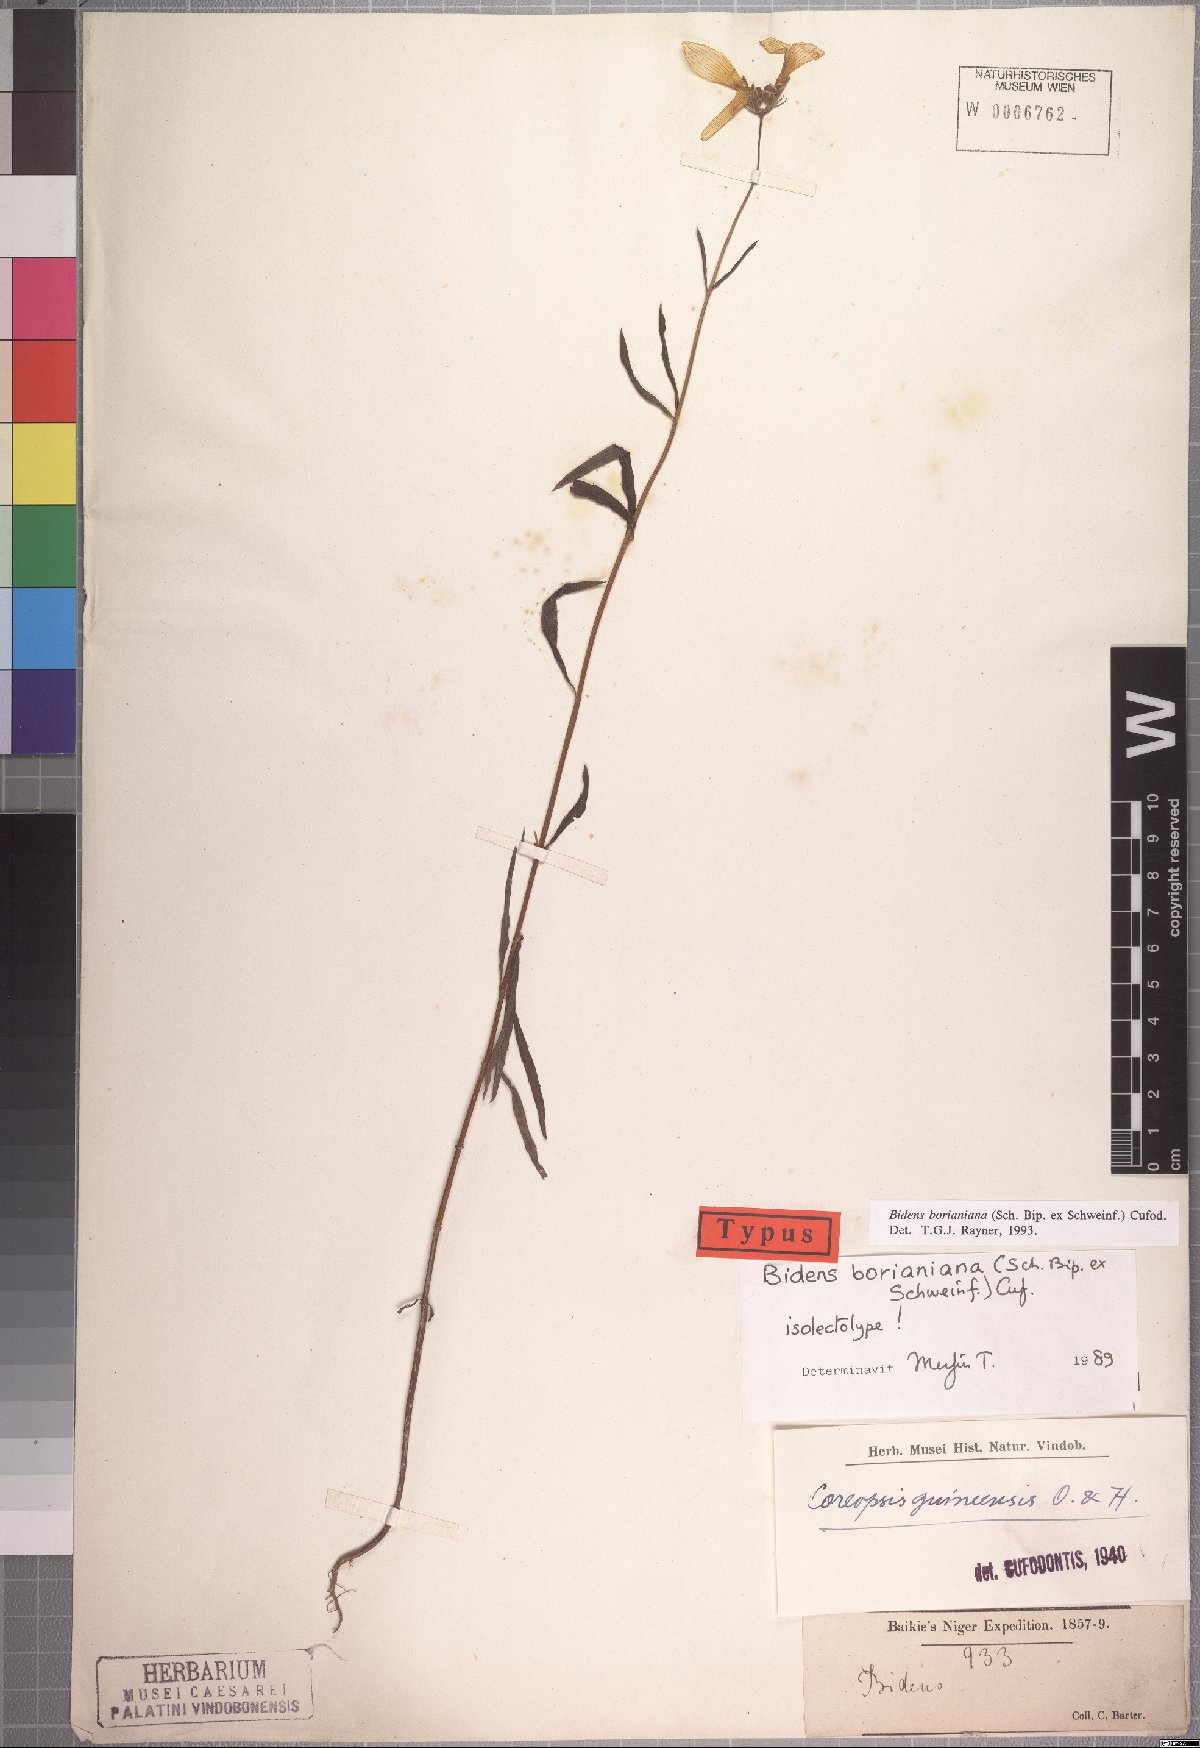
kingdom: Plantae
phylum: Tracheophyta
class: Magnoliopsida
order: Asterales
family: Asteraceae
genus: Chrysanthellum
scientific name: Chrysanthellum indicum
